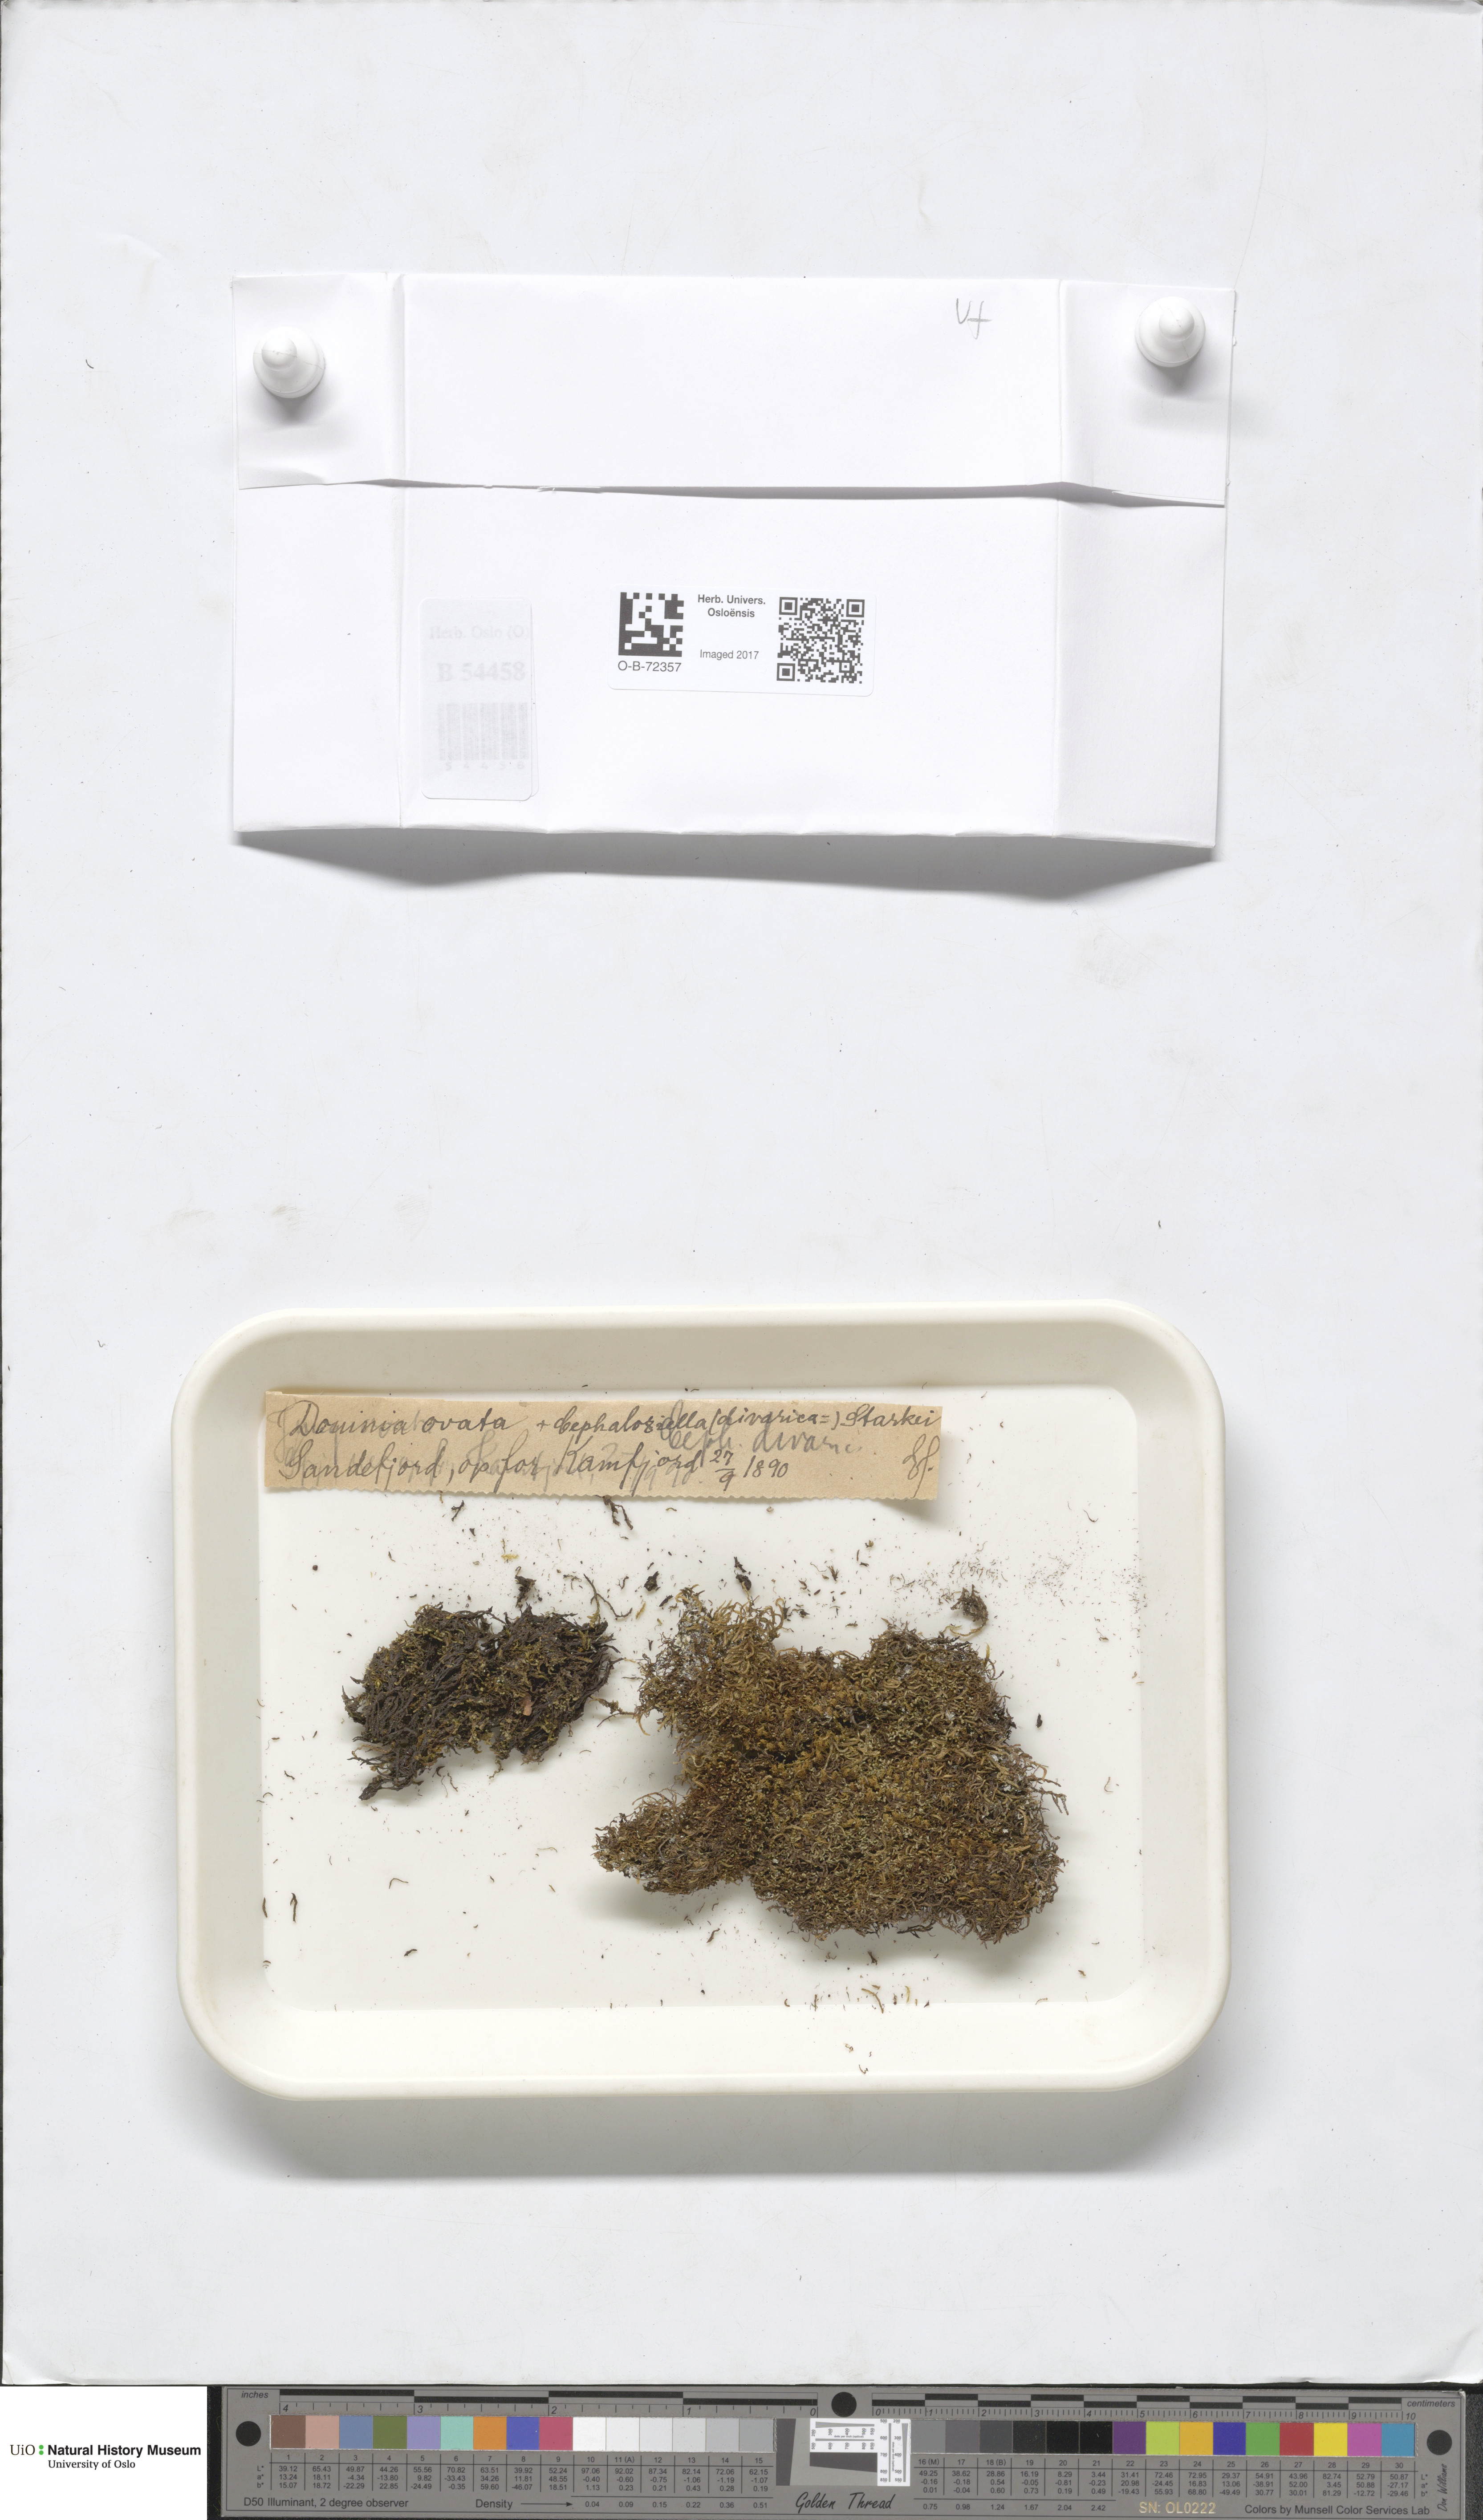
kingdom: Plantae
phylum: Marchantiophyta
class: Jungermanniopsida
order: Jungermanniales
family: Scapaniaceae
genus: Douinia
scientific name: Douinia ovata
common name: Waxy earwort
